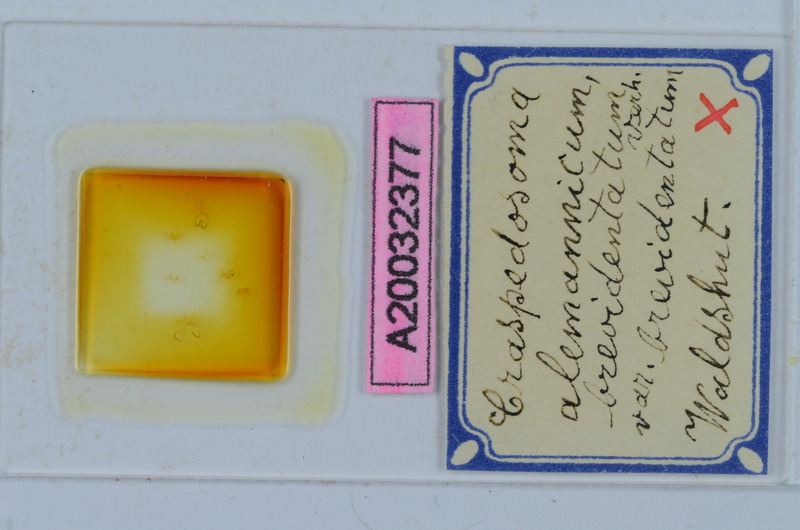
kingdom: Animalia
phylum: Arthropoda
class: Diplopoda
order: Chordeumatida
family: Craspedosomatidae
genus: Craspedosoma
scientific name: Craspedosoma rawlinsii
